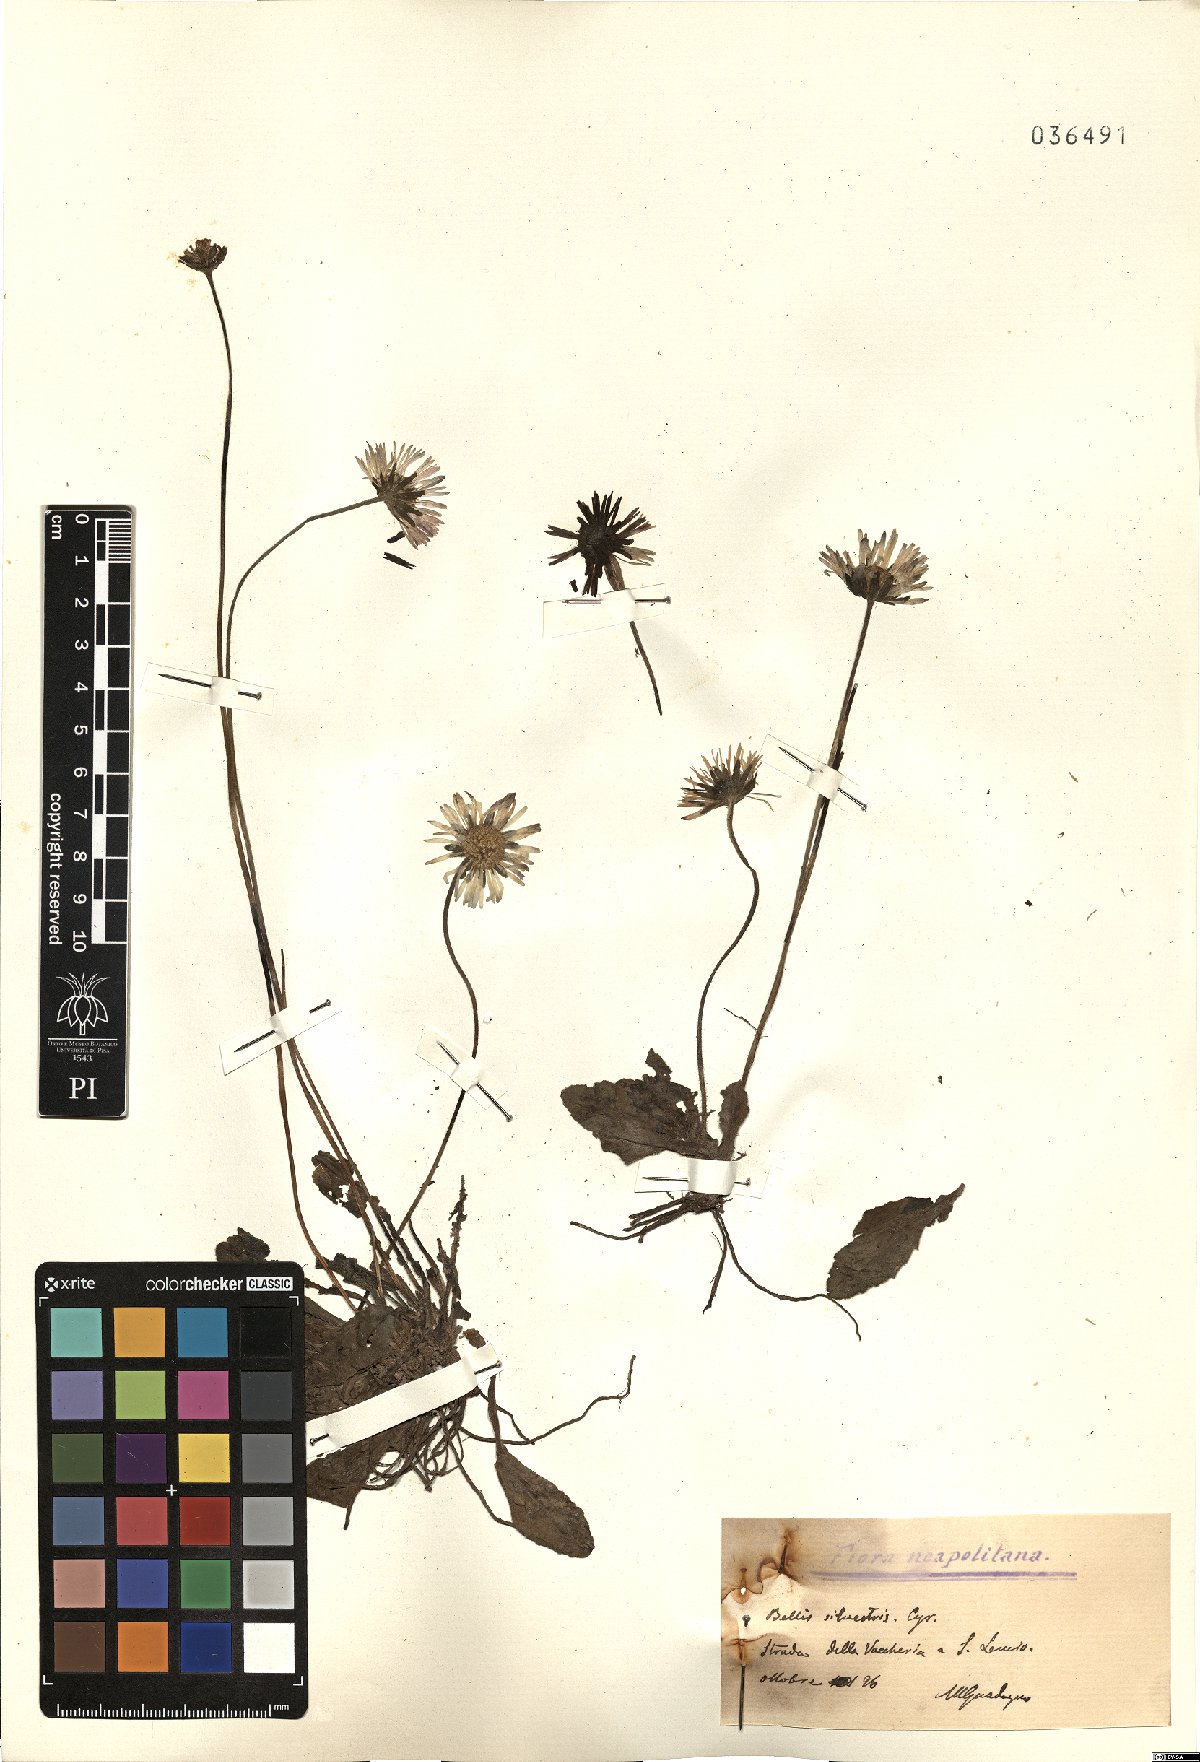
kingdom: Plantae
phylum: Tracheophyta
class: Magnoliopsida
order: Asterales
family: Asteraceae
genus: Bellis
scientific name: Bellis sylvestris
